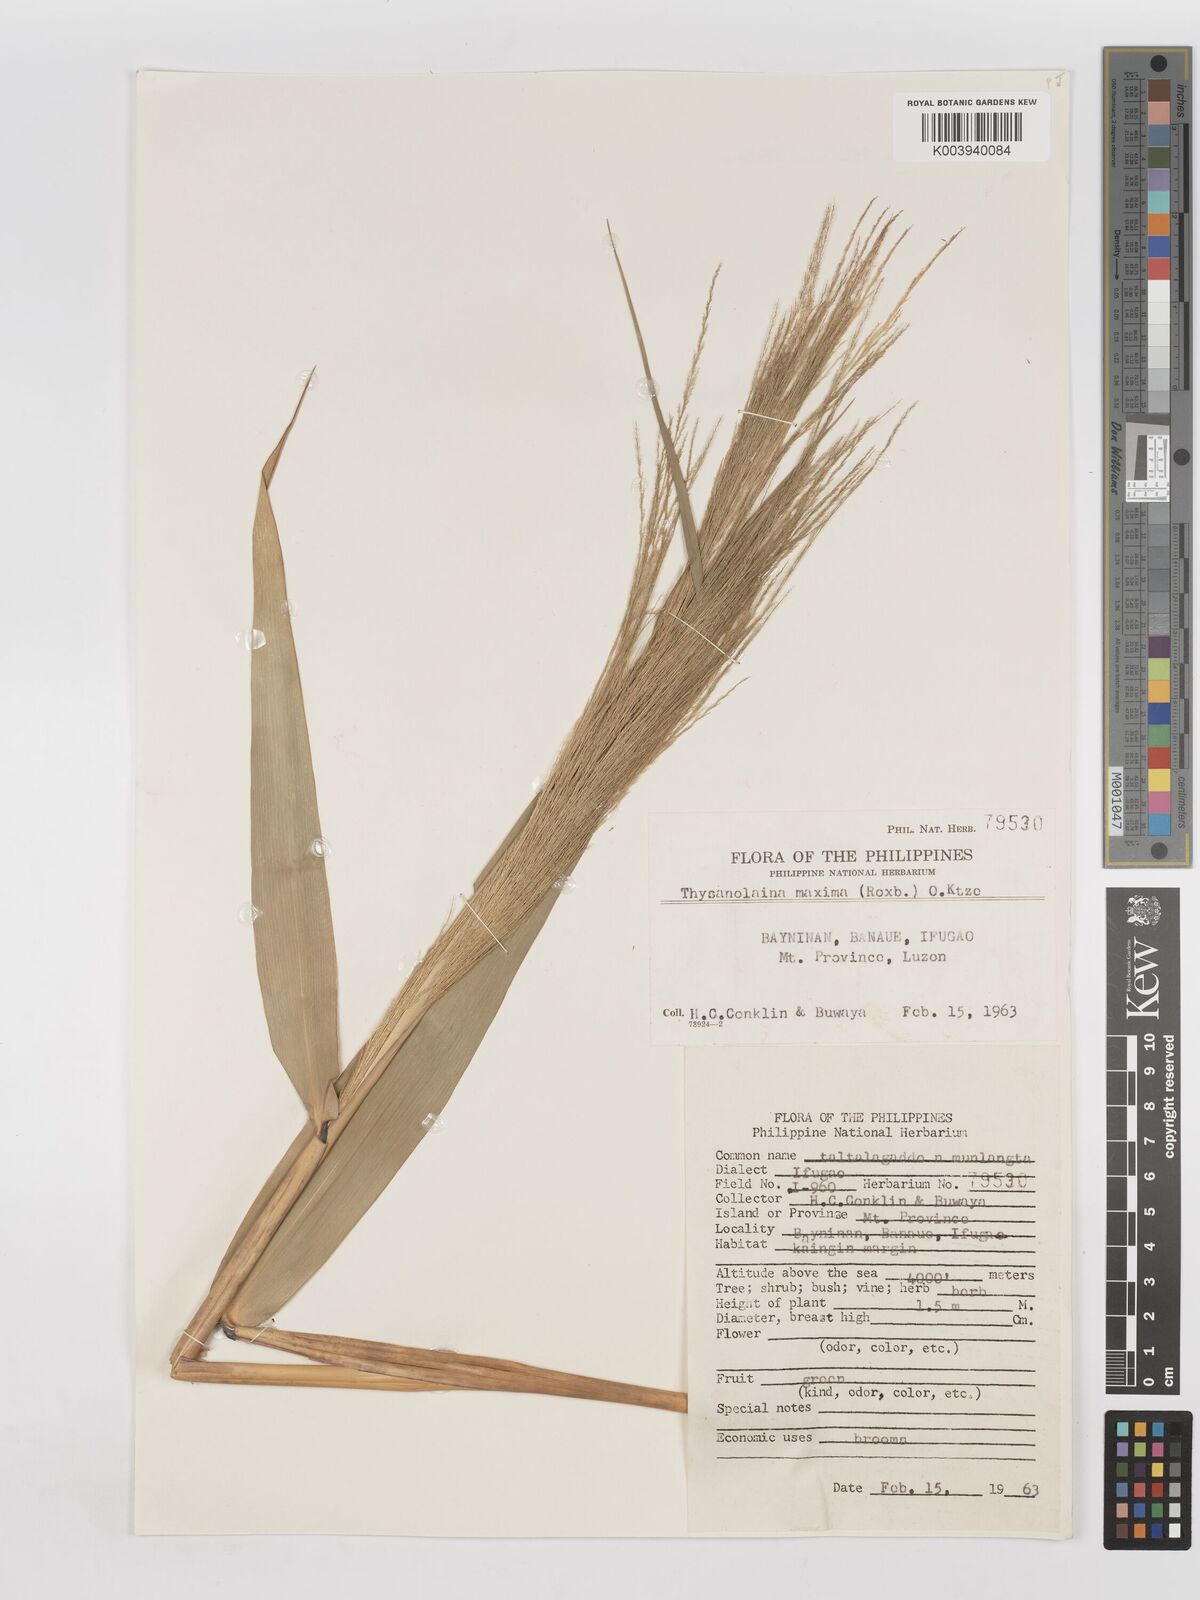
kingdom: Plantae
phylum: Tracheophyta
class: Liliopsida
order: Poales
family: Poaceae
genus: Thysanolaena
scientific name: Thysanolaena latifolia
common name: Tiger grass
